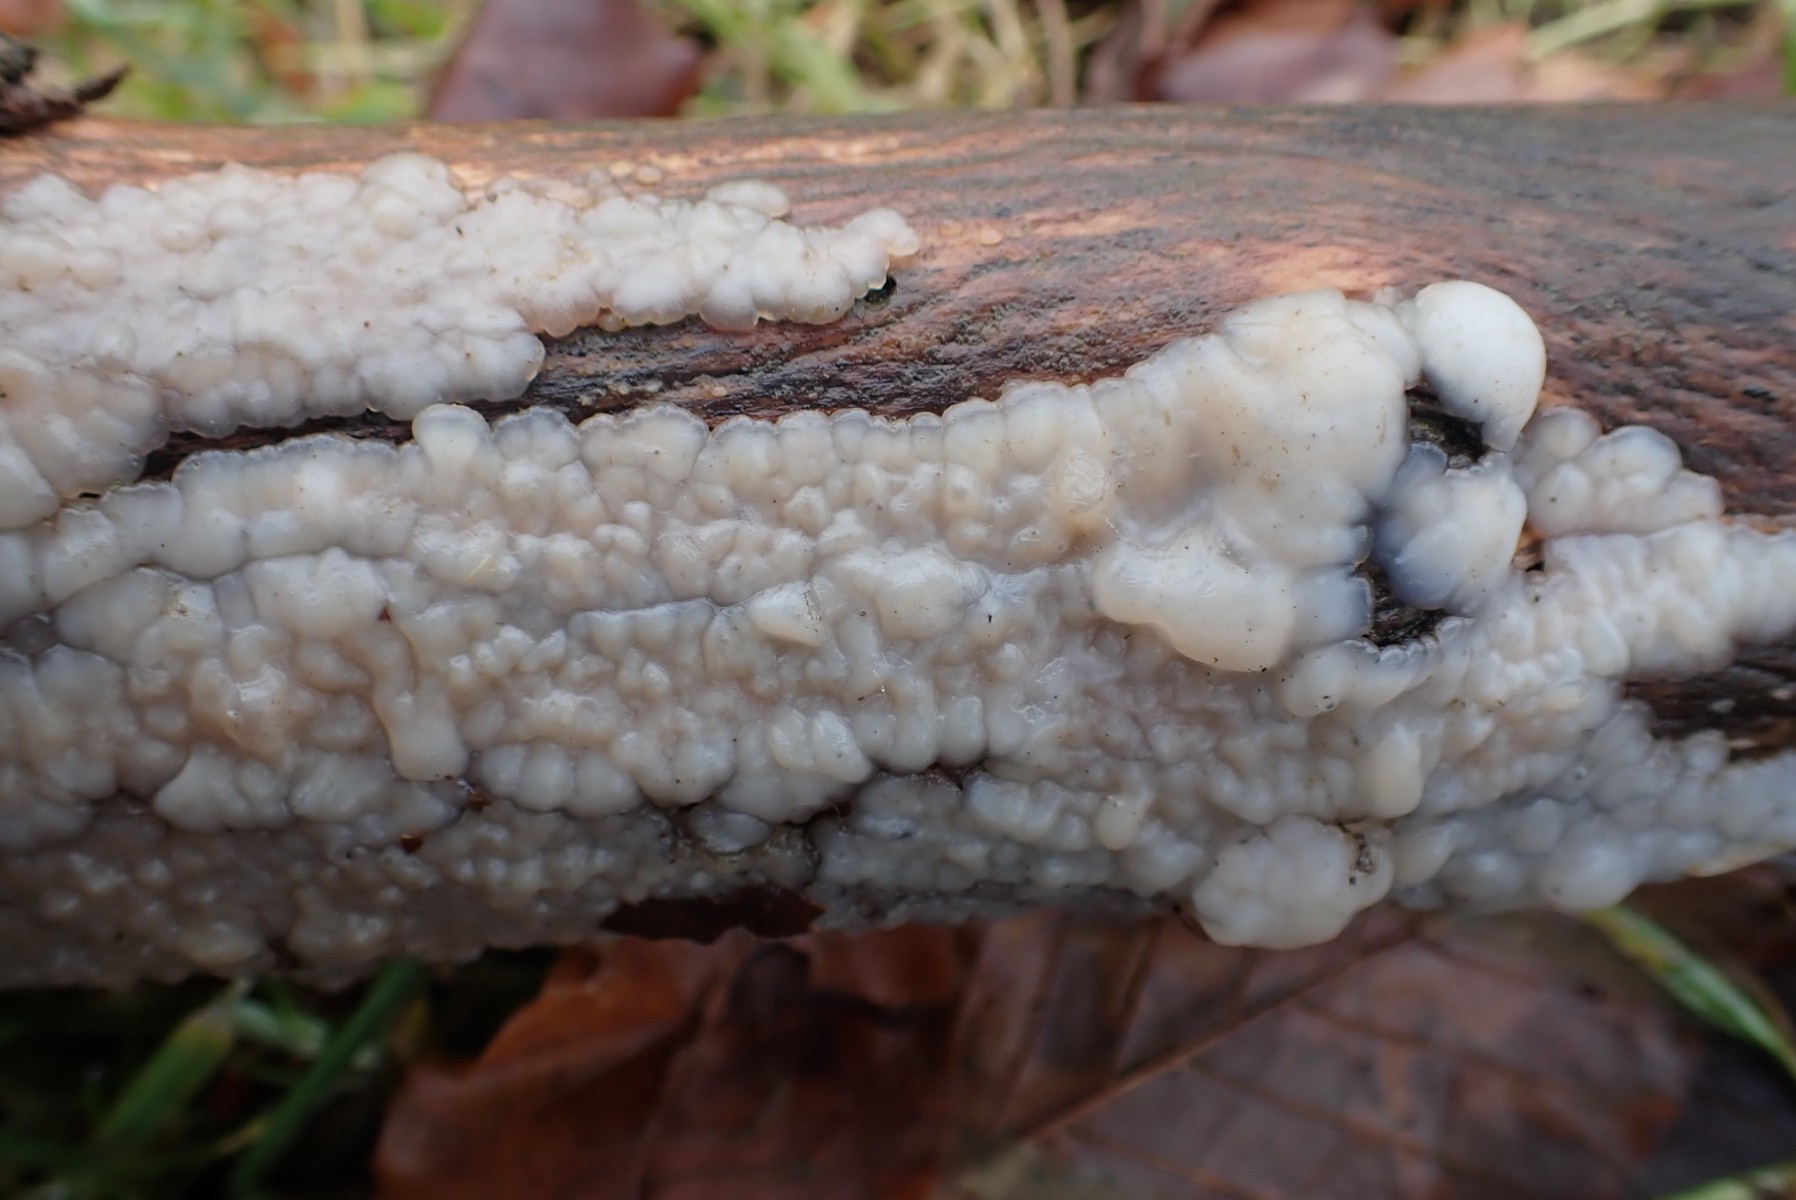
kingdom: Fungi
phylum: Basidiomycota
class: Agaricomycetes
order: Auriculariales
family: Auriculariaceae
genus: Exidia
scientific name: Exidia thuretiana
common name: hvidlig bævretop
